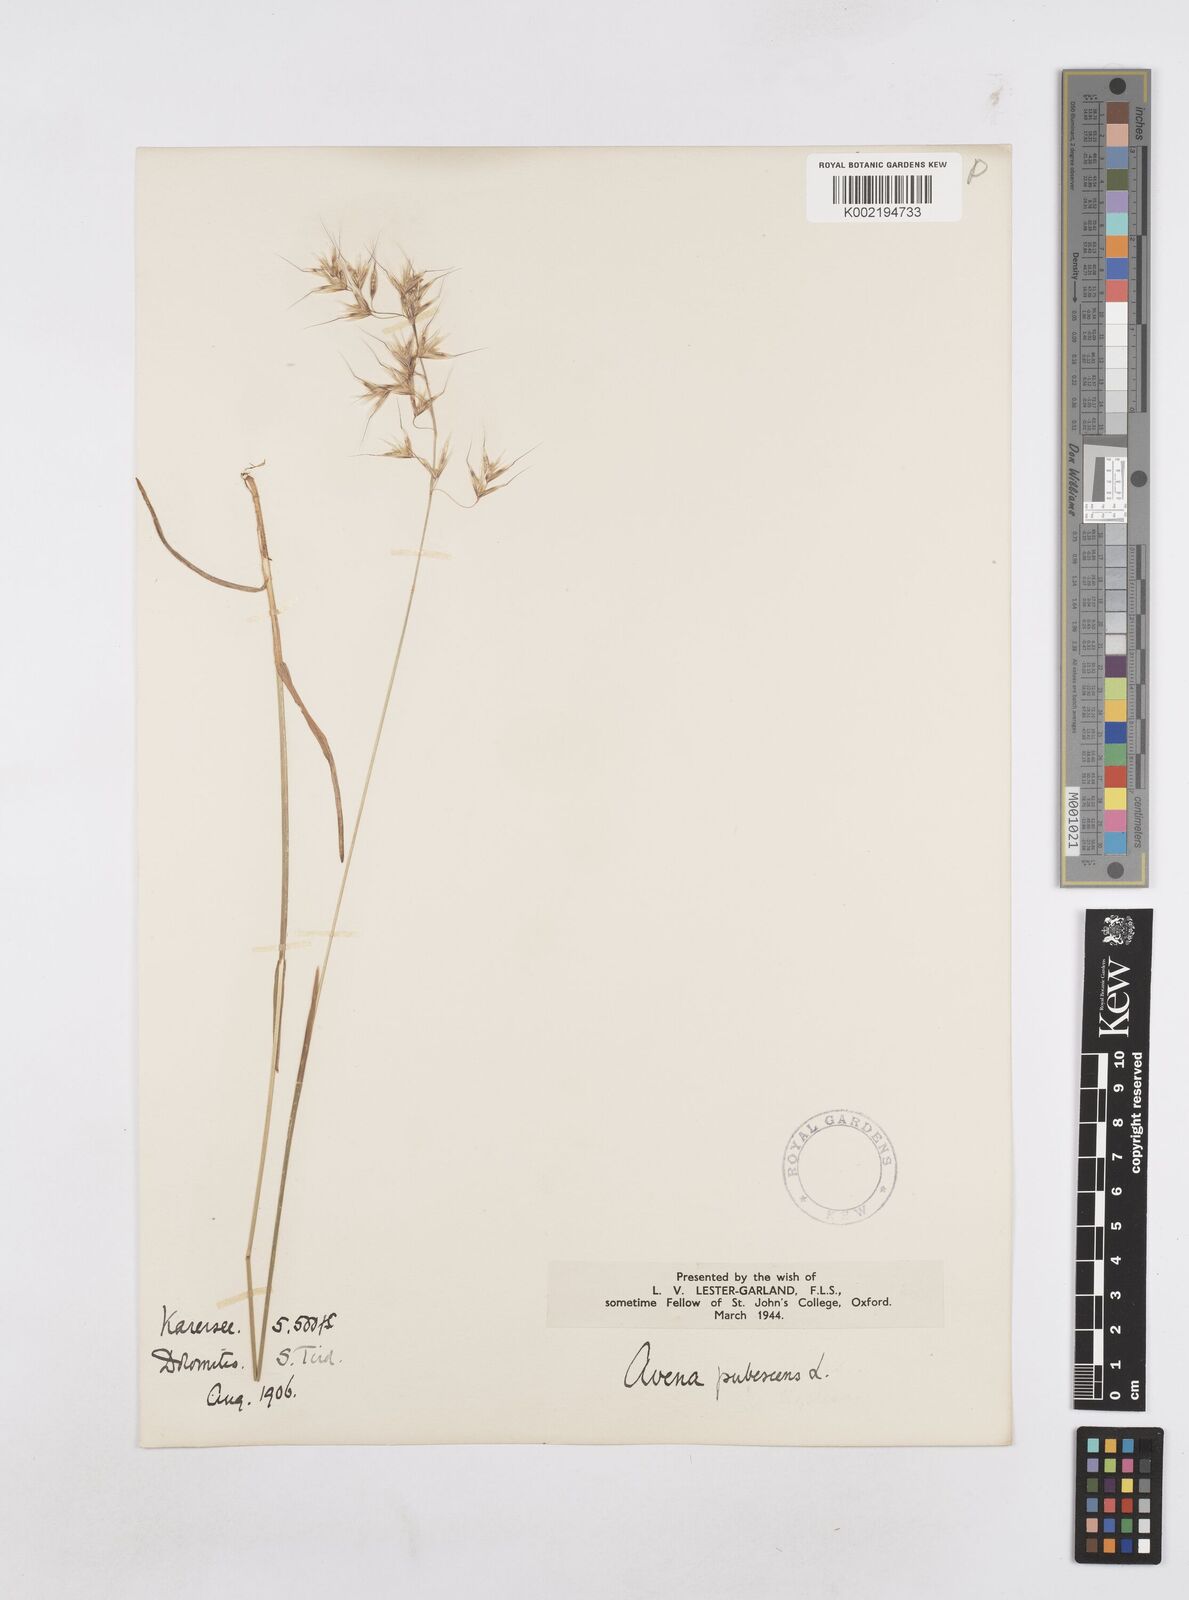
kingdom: Plantae
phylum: Tracheophyta
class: Liliopsida
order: Poales
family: Poaceae
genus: Avenula
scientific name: Avenula pubescens
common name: Downy alpine oatgrass
